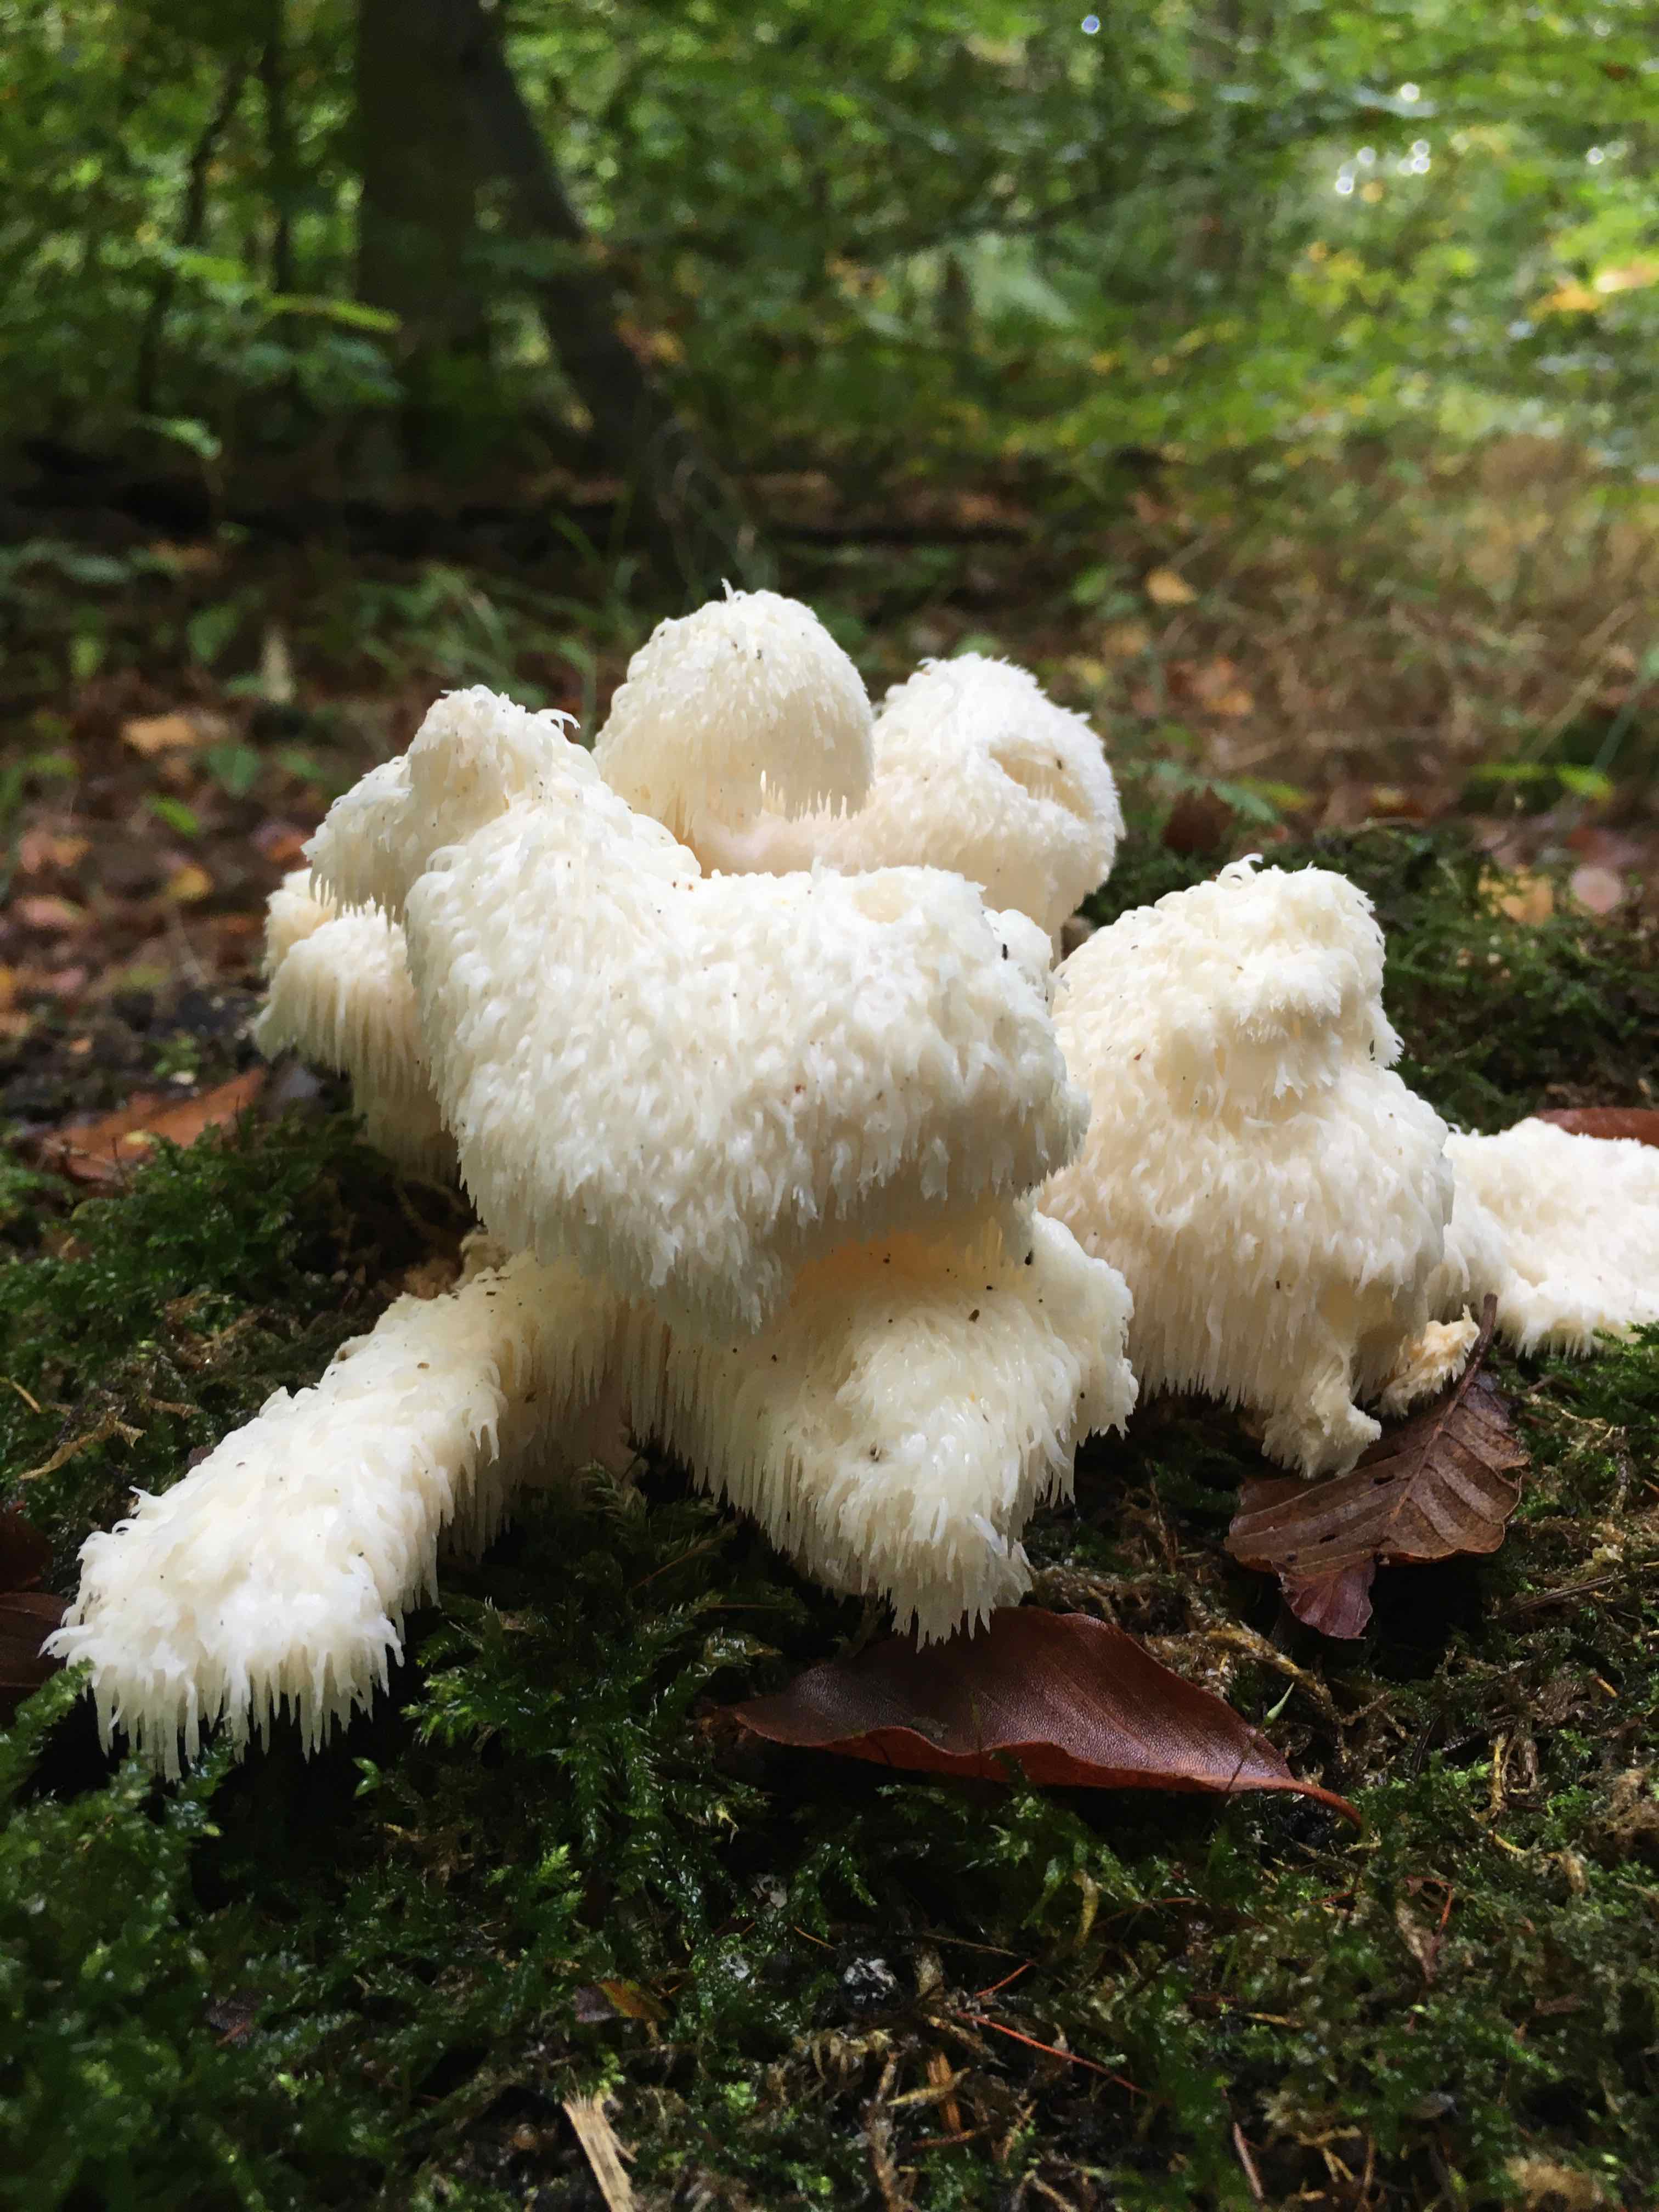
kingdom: Fungi
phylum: Basidiomycota
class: Agaricomycetes
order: Russulales
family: Hericiaceae
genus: Hericium
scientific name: Hericium cirrhatum
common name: børstepigsvamp
